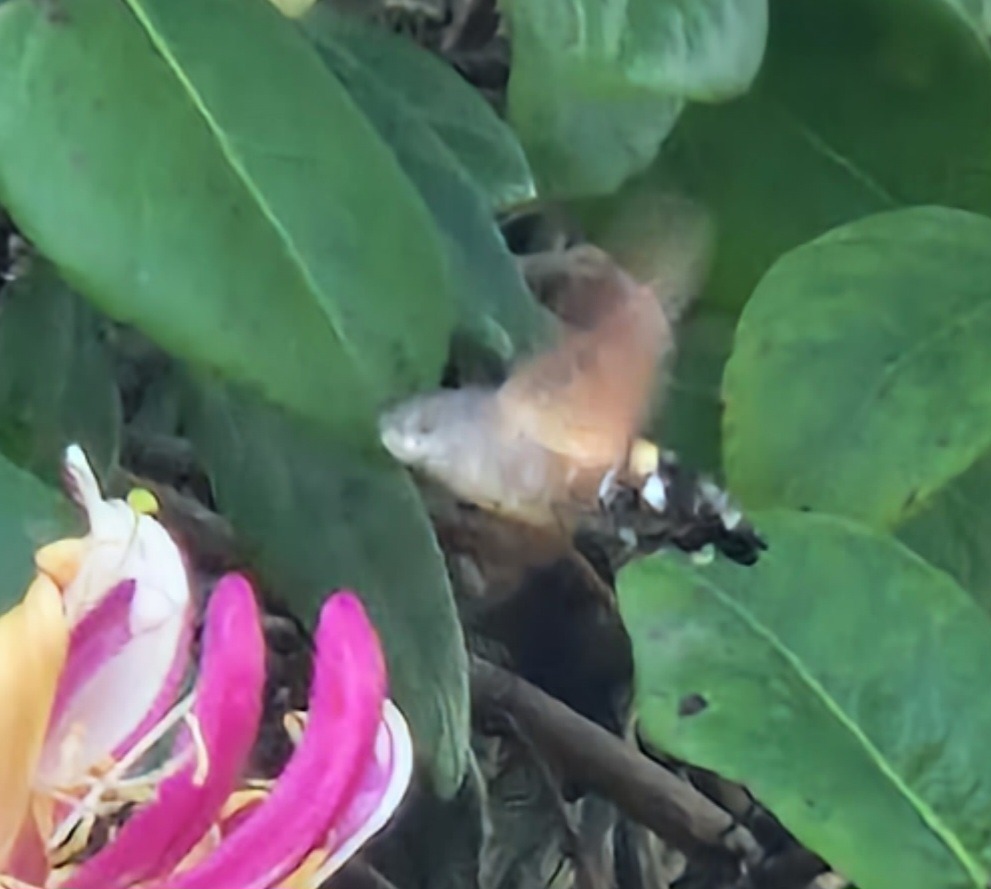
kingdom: Animalia
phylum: Arthropoda
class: Insecta
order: Lepidoptera
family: Sphingidae
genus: Macroglossum
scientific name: Macroglossum stellatarum
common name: Duehale
